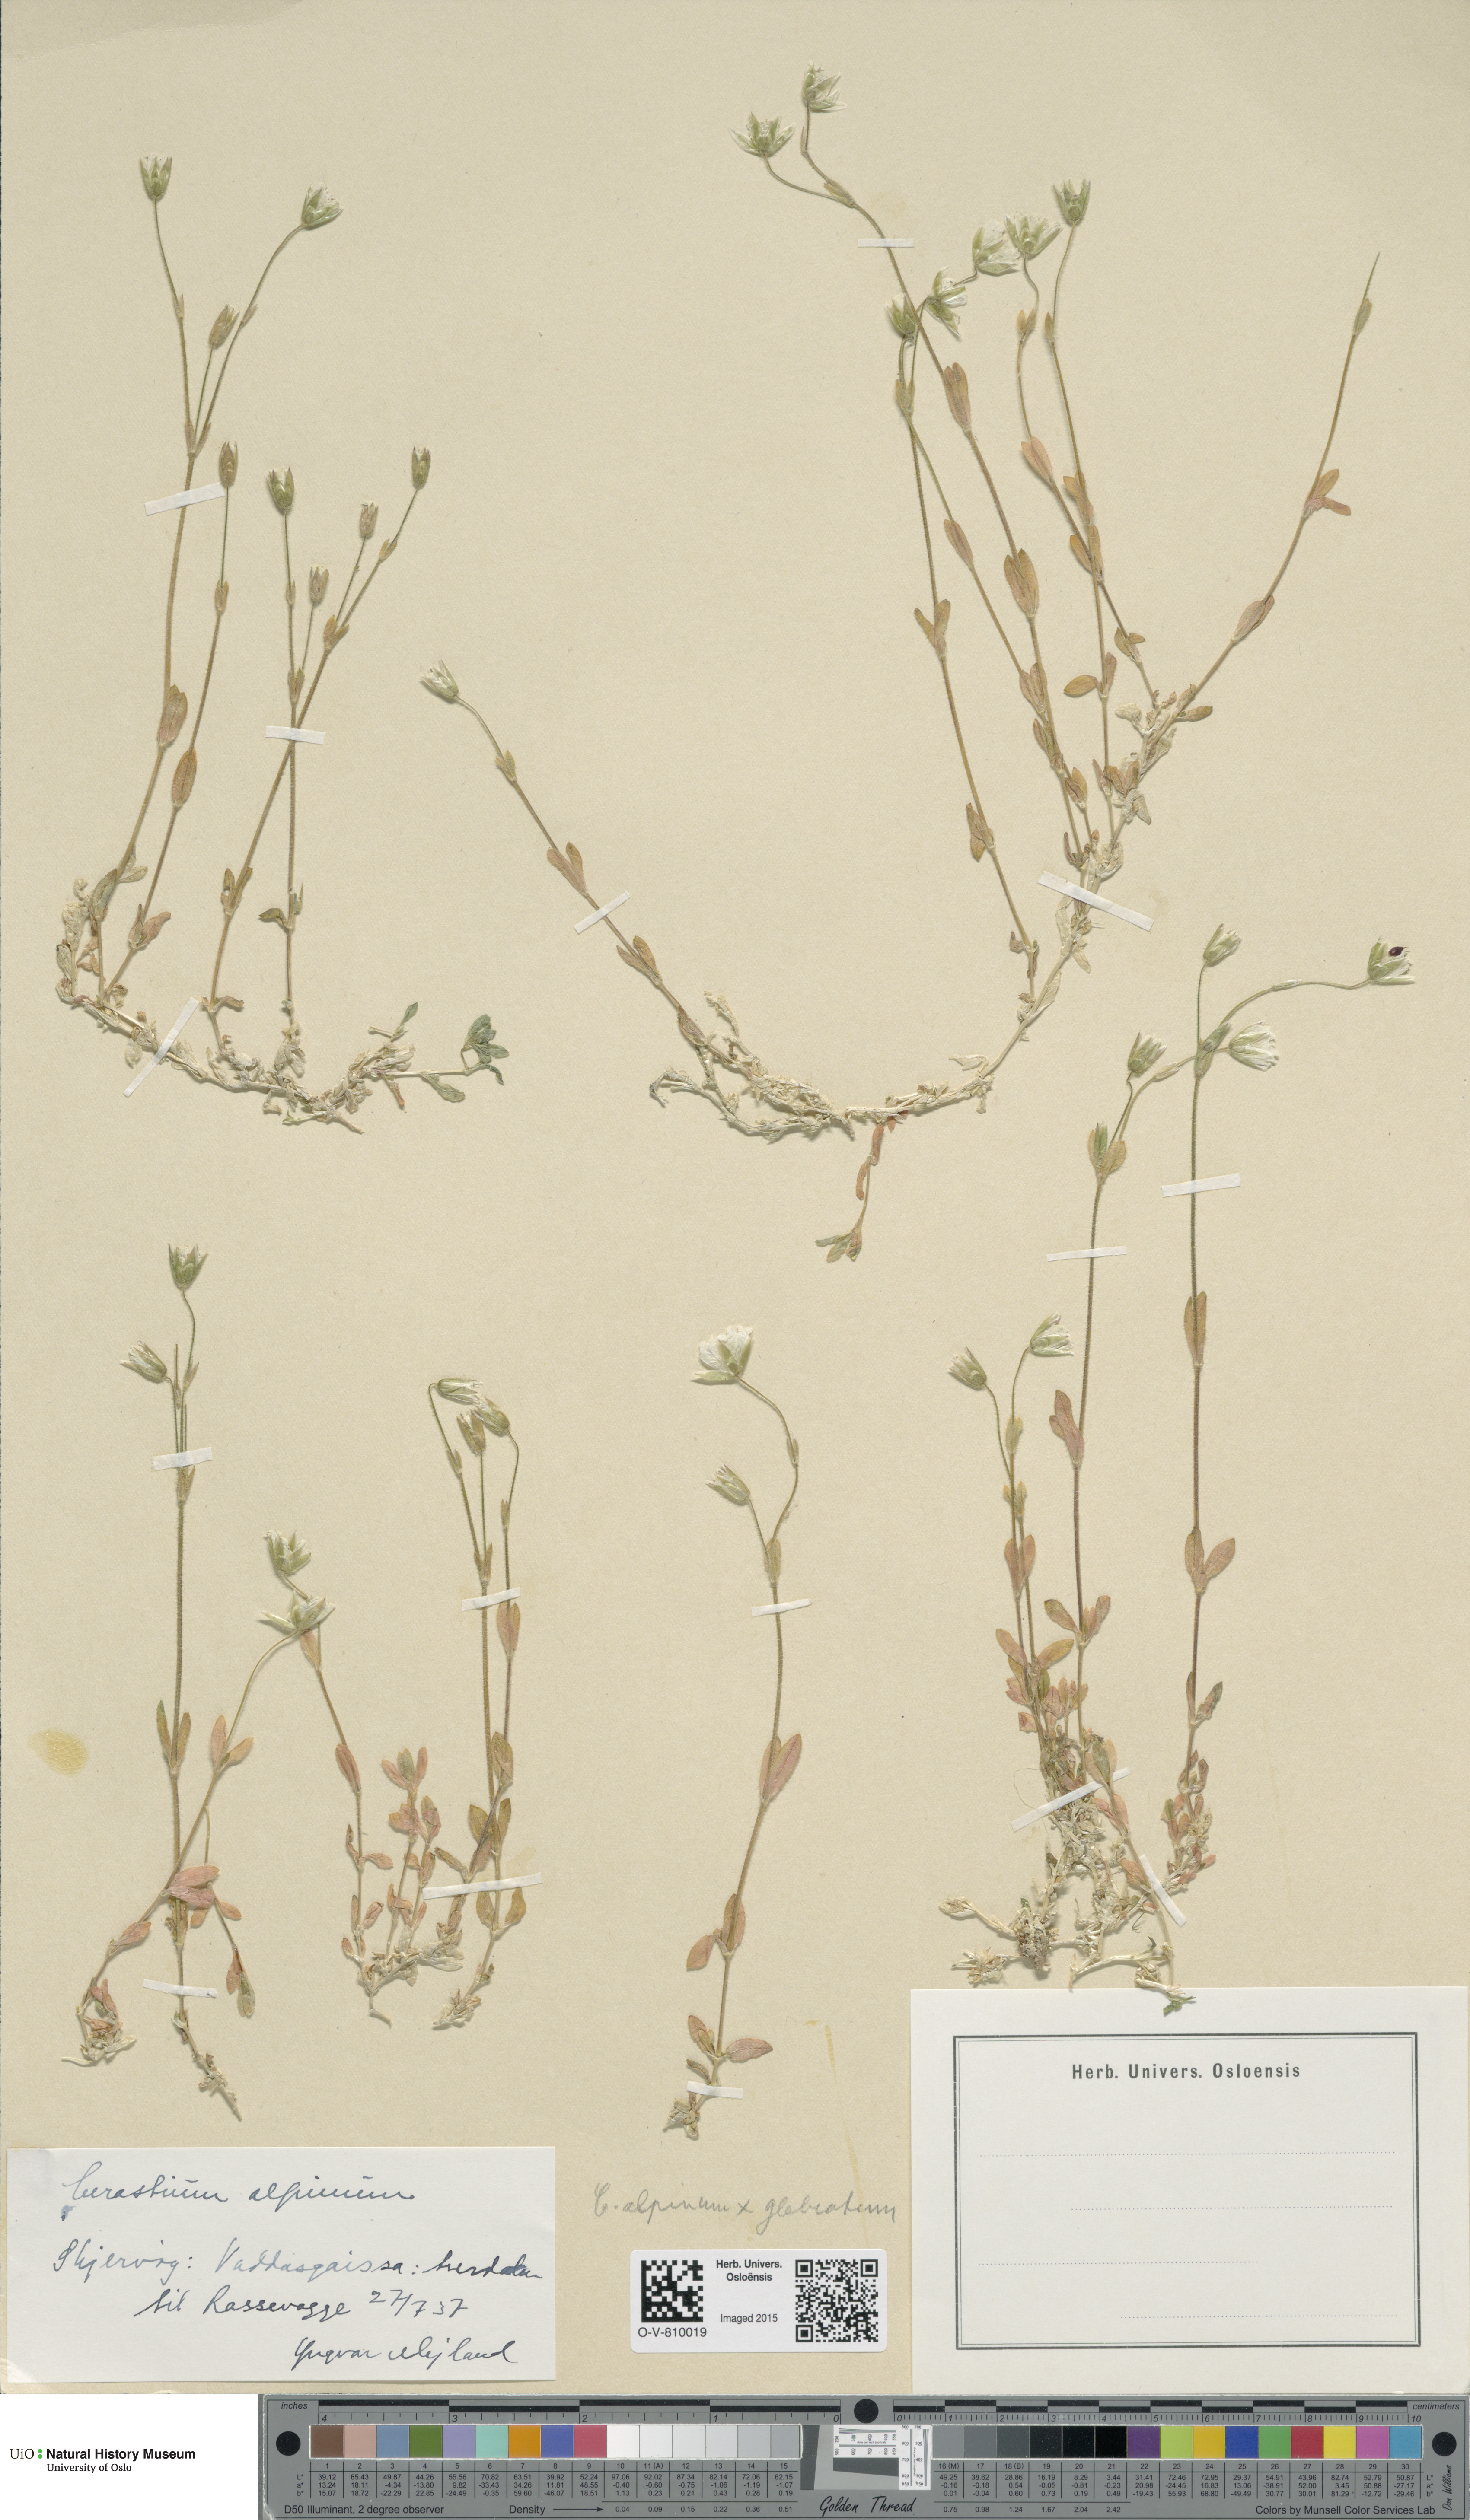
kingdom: Plantae
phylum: Tracheophyta
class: Magnoliopsida
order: Caryophyllales
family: Caryophyllaceae
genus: Cerastium
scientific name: Cerastium
